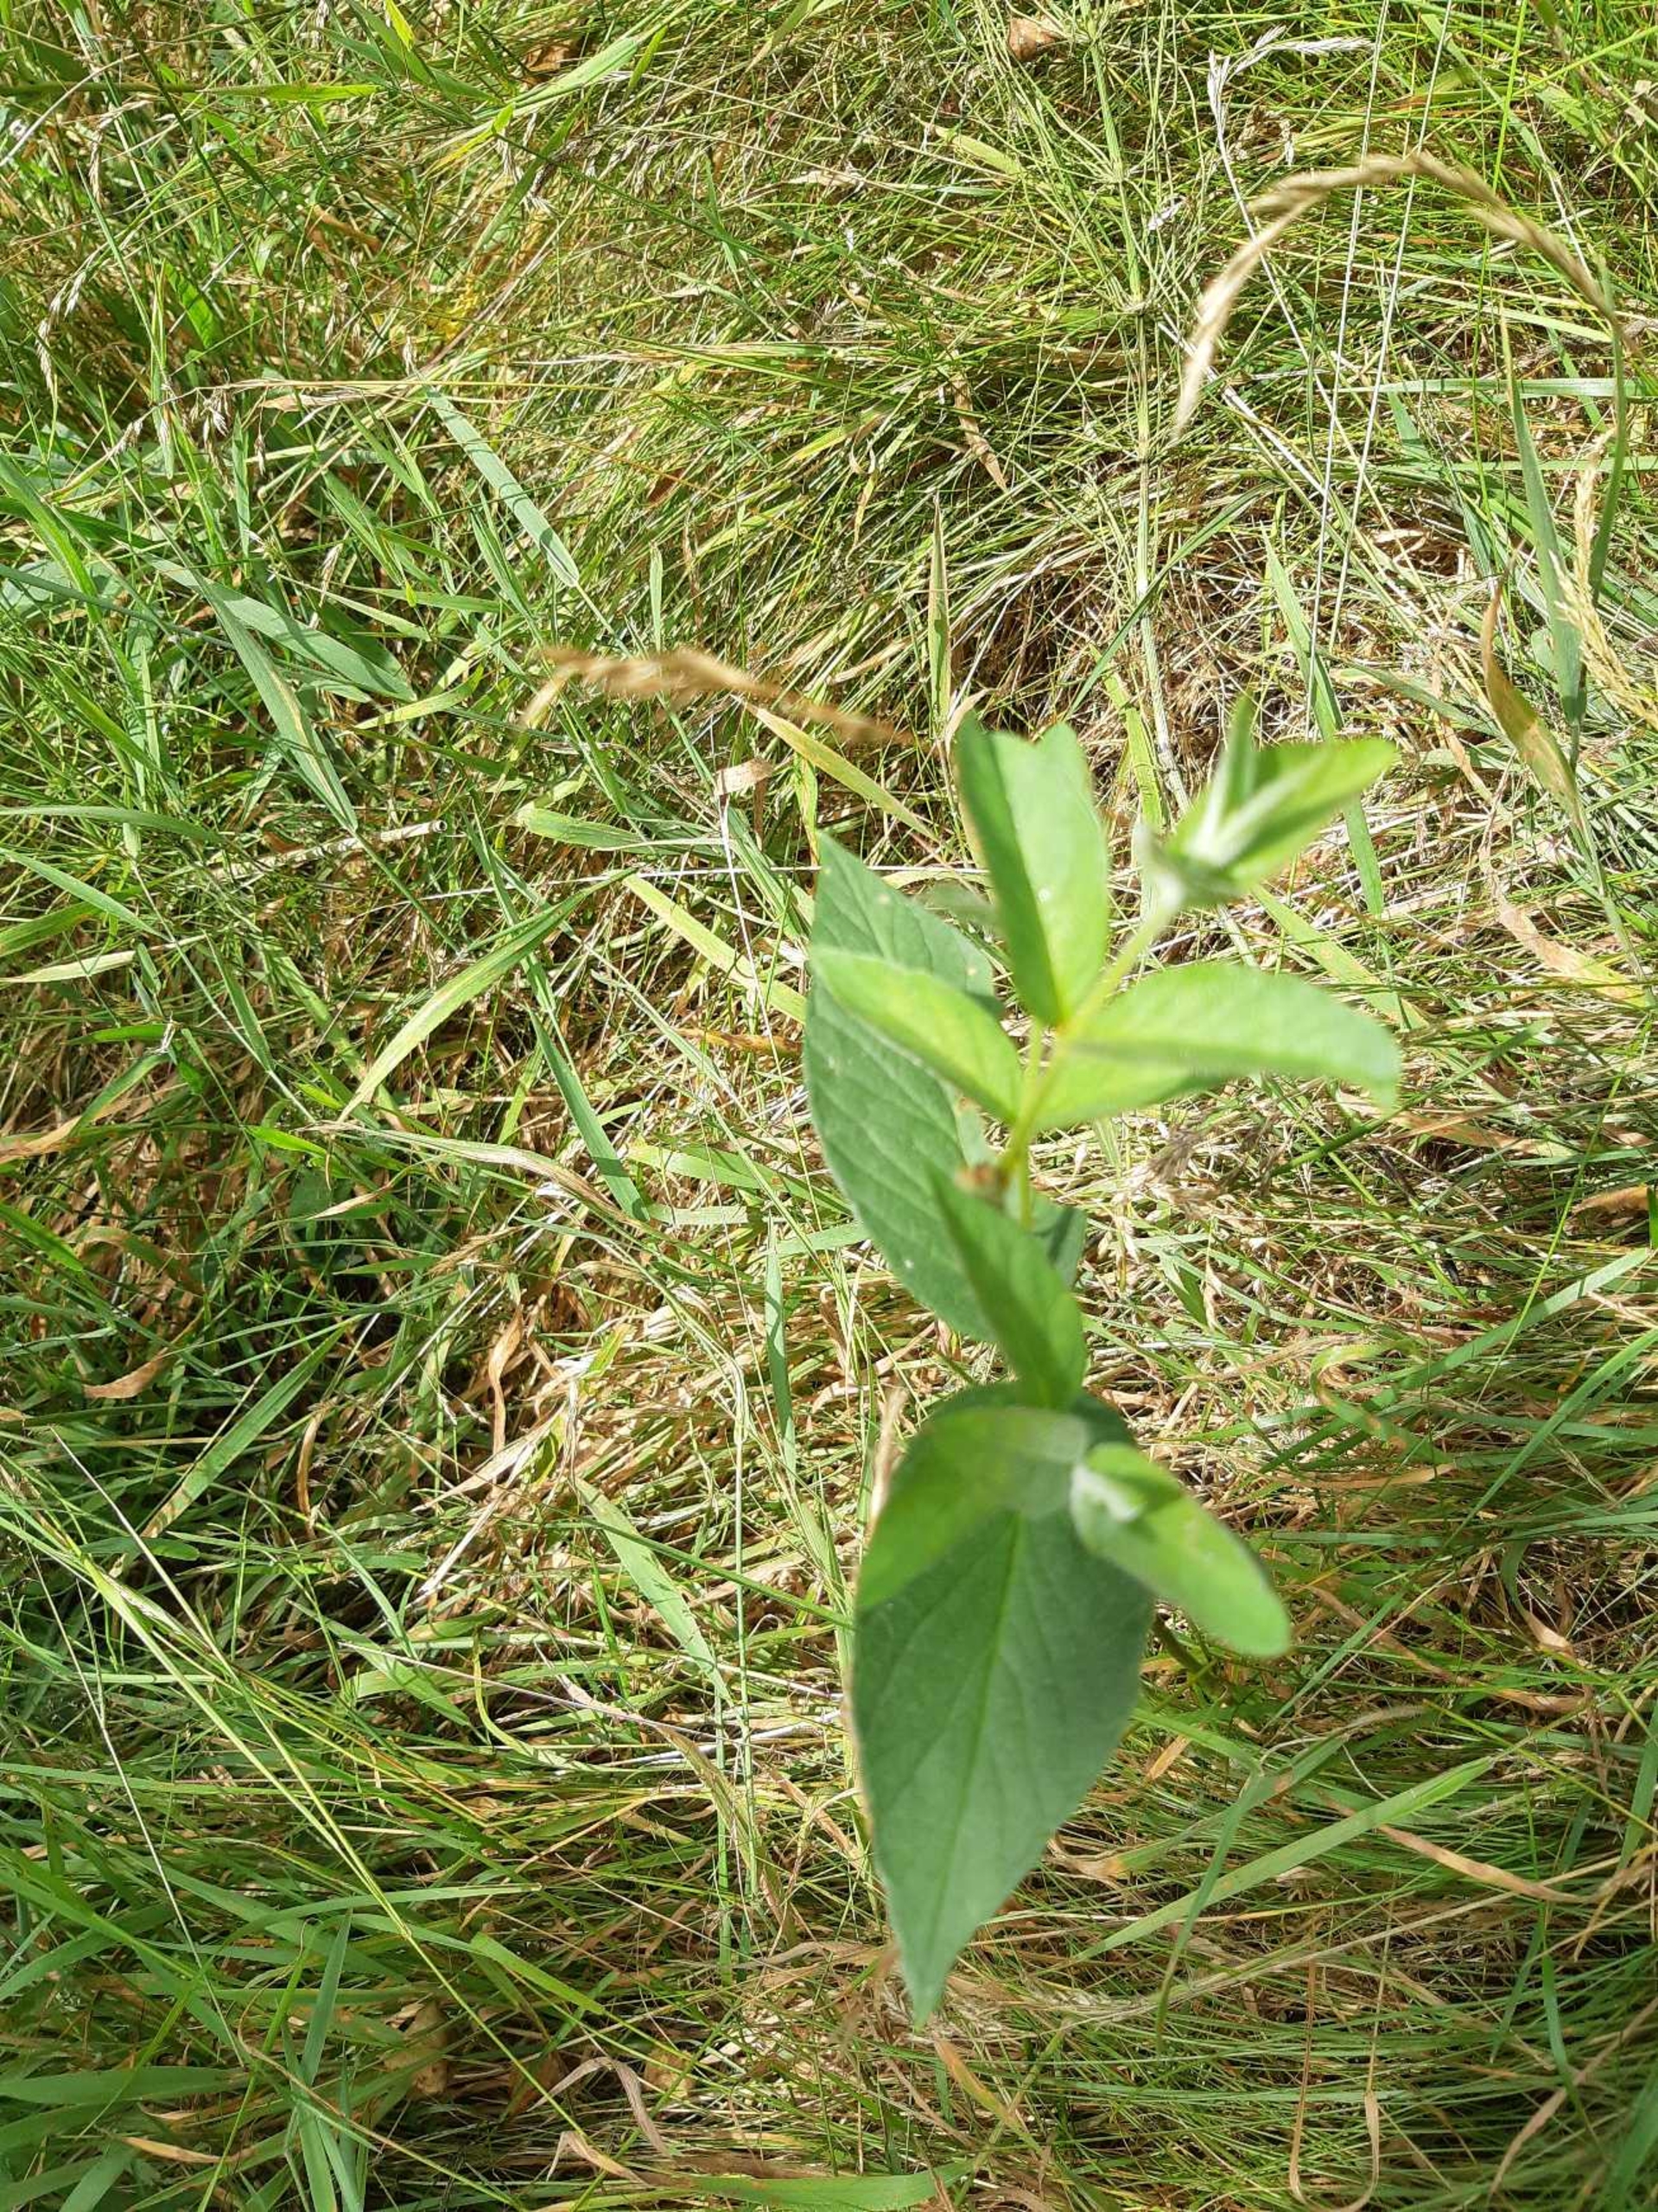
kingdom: Plantae
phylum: Tracheophyta
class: Magnoliopsida
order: Ericales
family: Primulaceae
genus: Lysimachia
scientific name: Lysimachia vulgaris
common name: Almindelig fredløs
